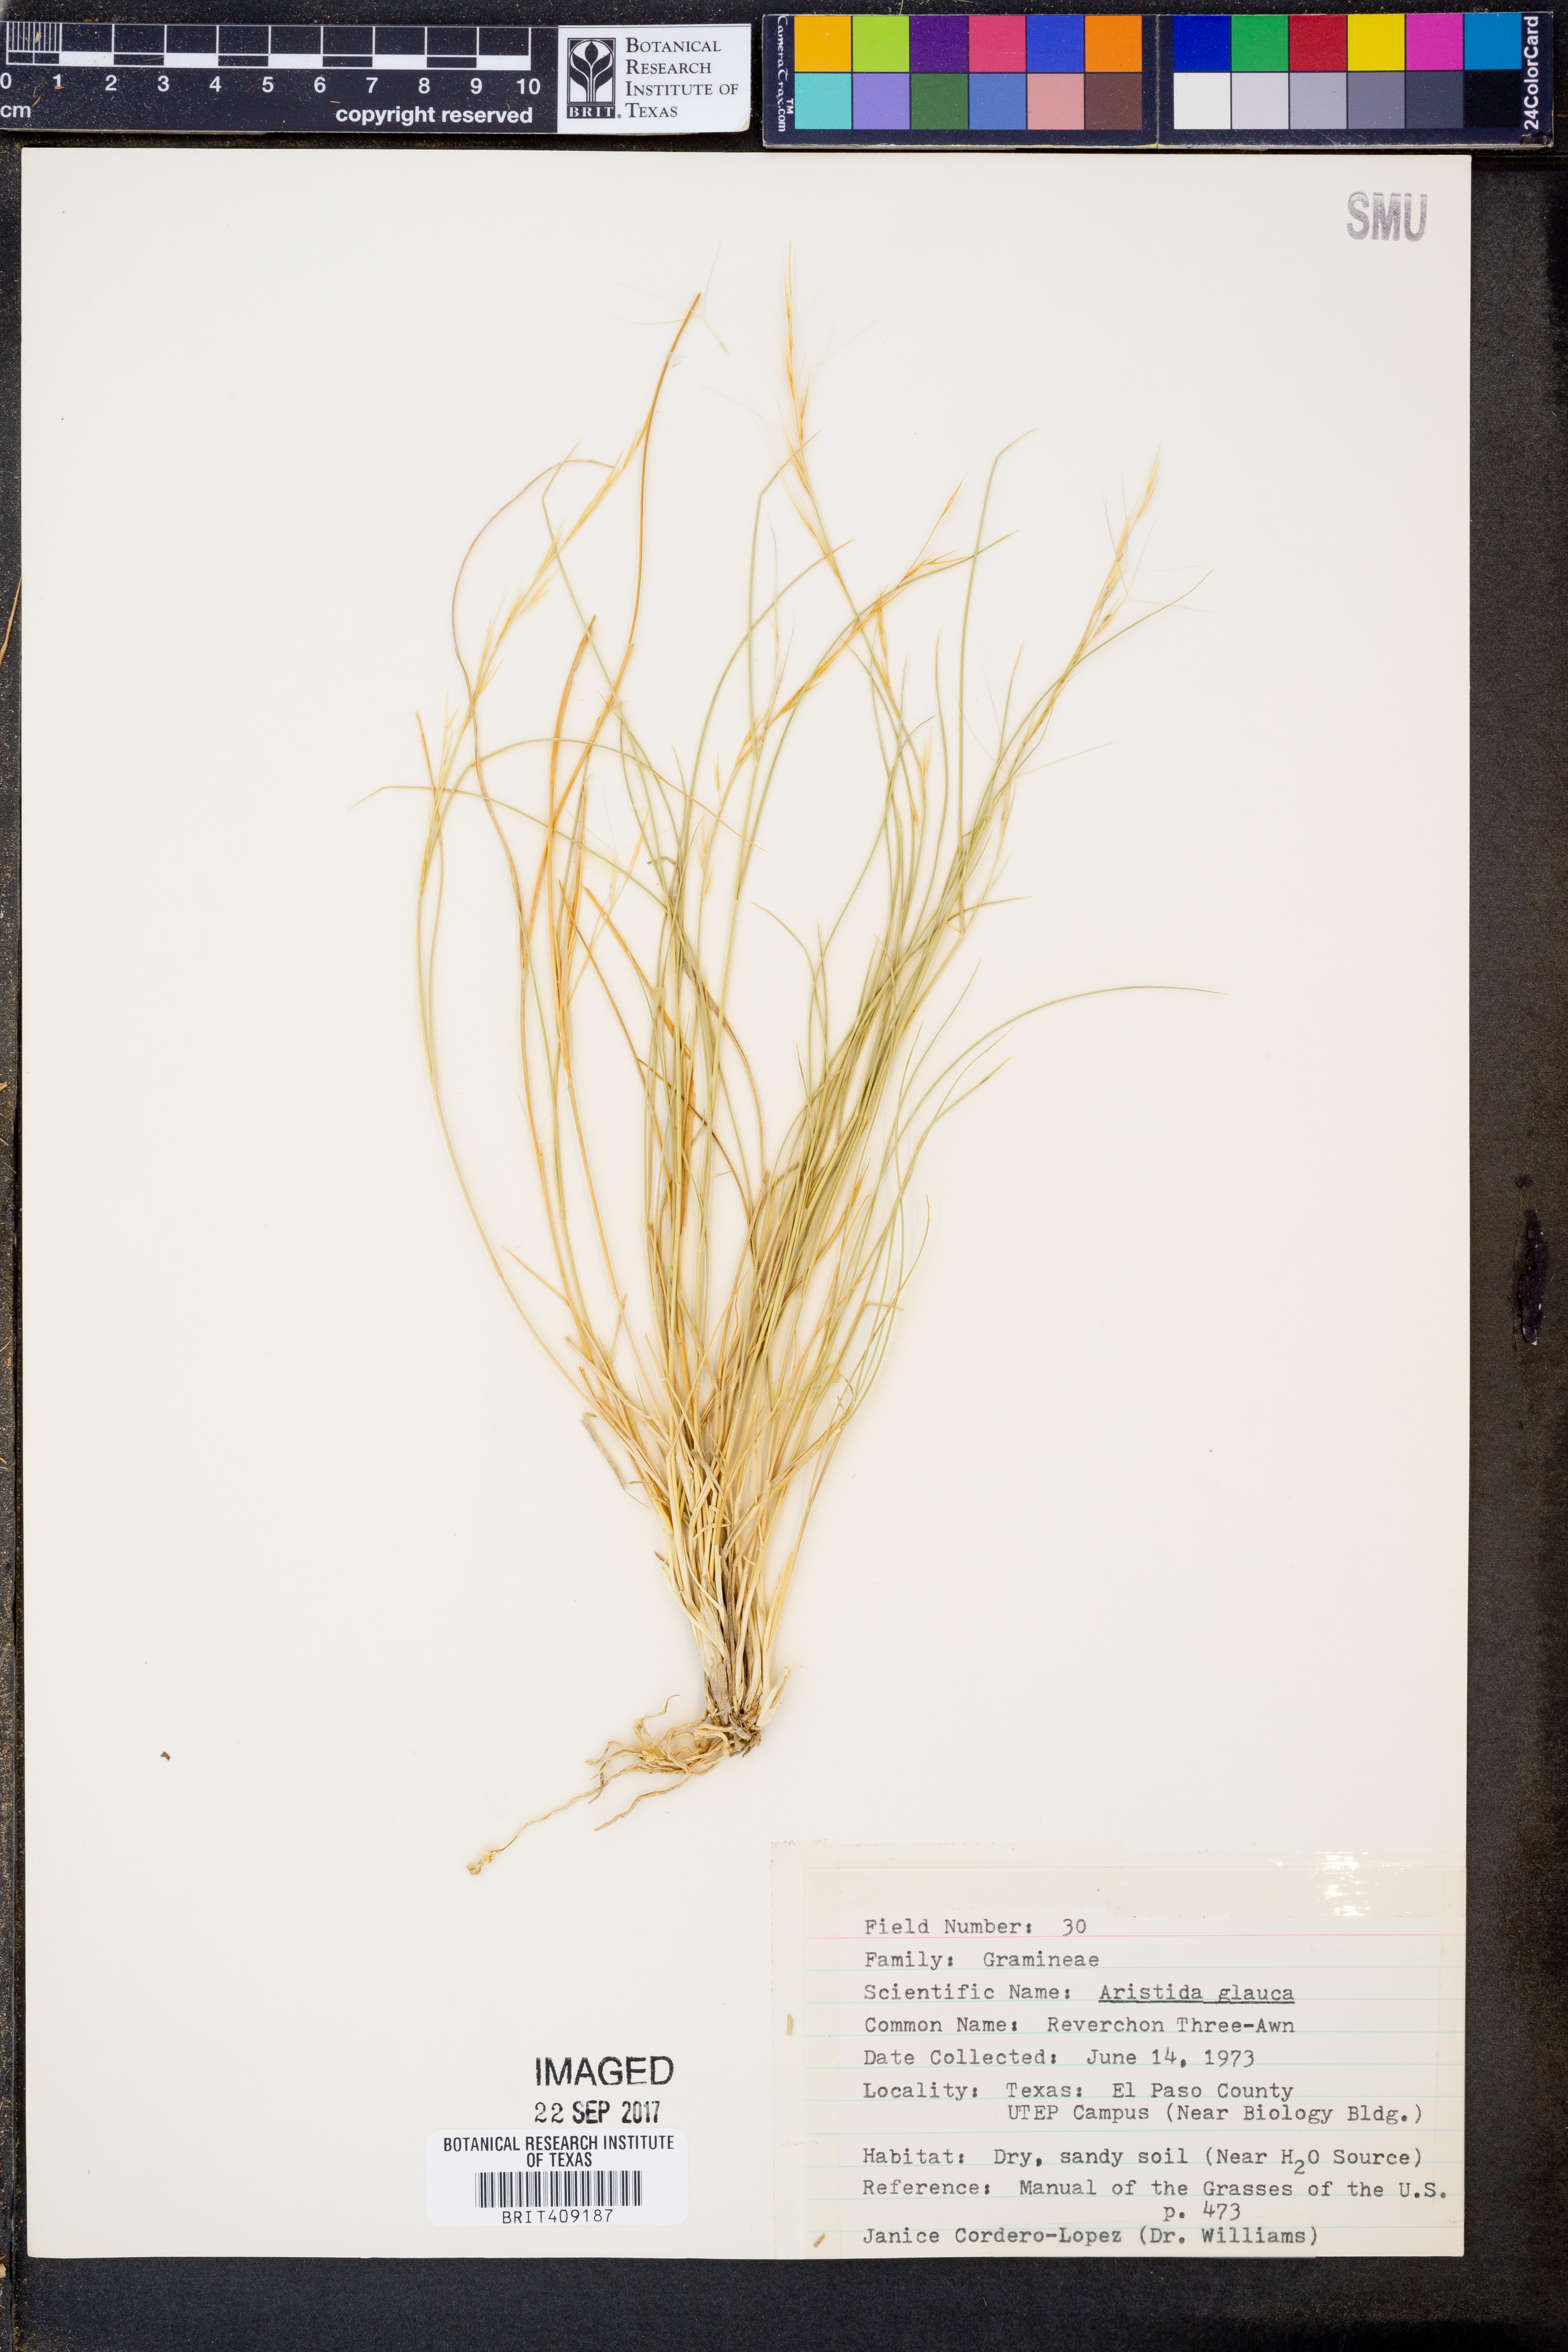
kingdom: Plantae
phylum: Tracheophyta
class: Liliopsida
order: Poales
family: Poaceae
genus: Aristida
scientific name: Aristida glauca
